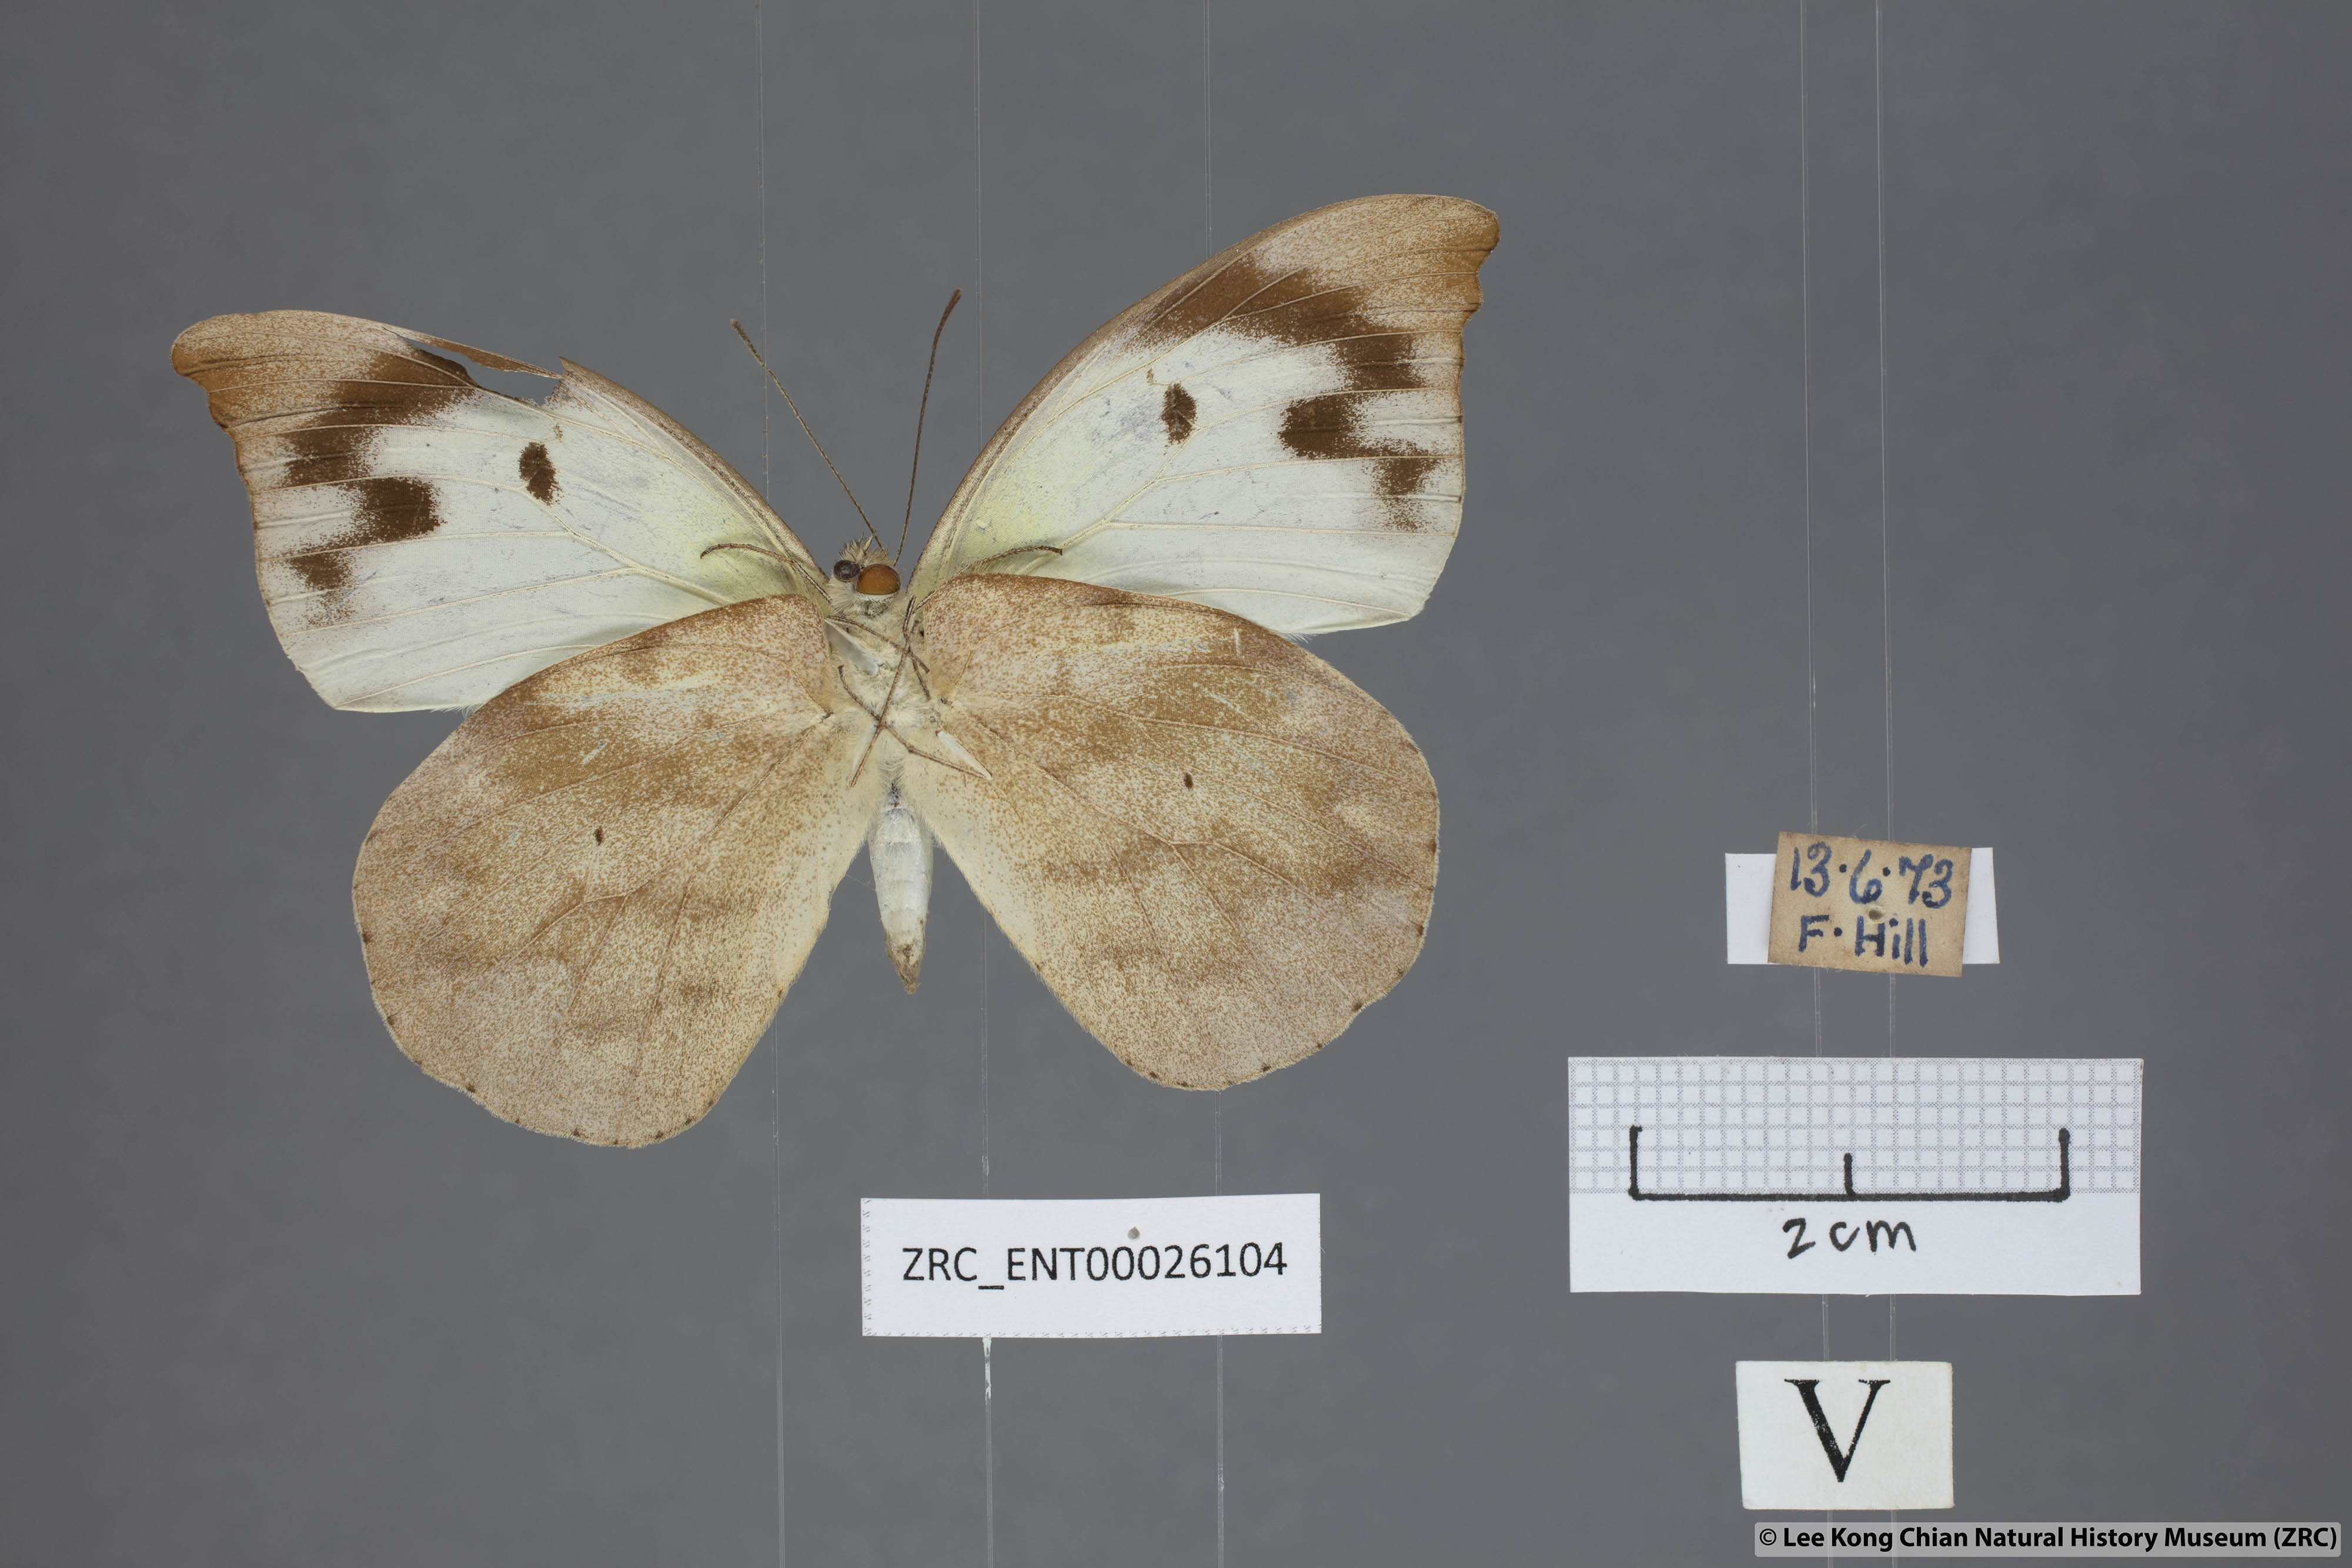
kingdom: Animalia
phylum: Arthropoda
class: Insecta
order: Lepidoptera
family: Pieridae
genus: Appias
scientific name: Appias lalassis
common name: Burmese puffin
